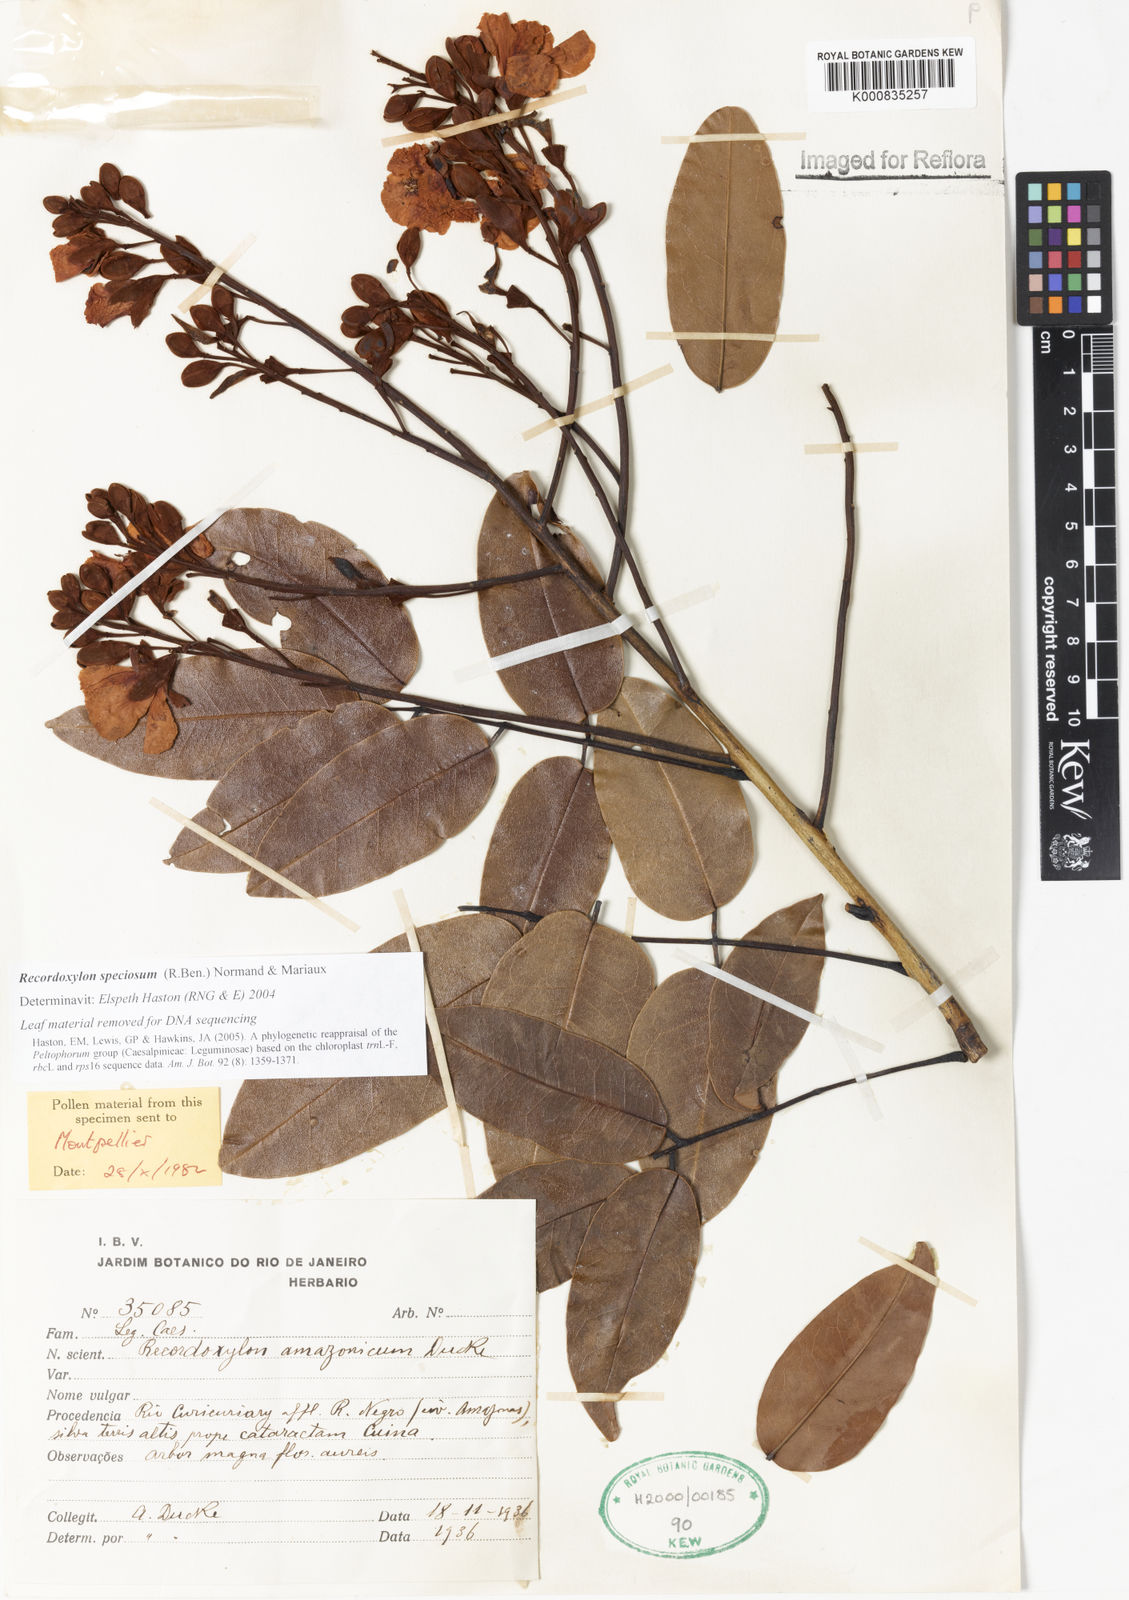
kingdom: Plantae
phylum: Tracheophyta
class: Magnoliopsida
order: Fabales
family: Fabaceae
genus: Recordoxylon
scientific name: Recordoxylon speciosum
